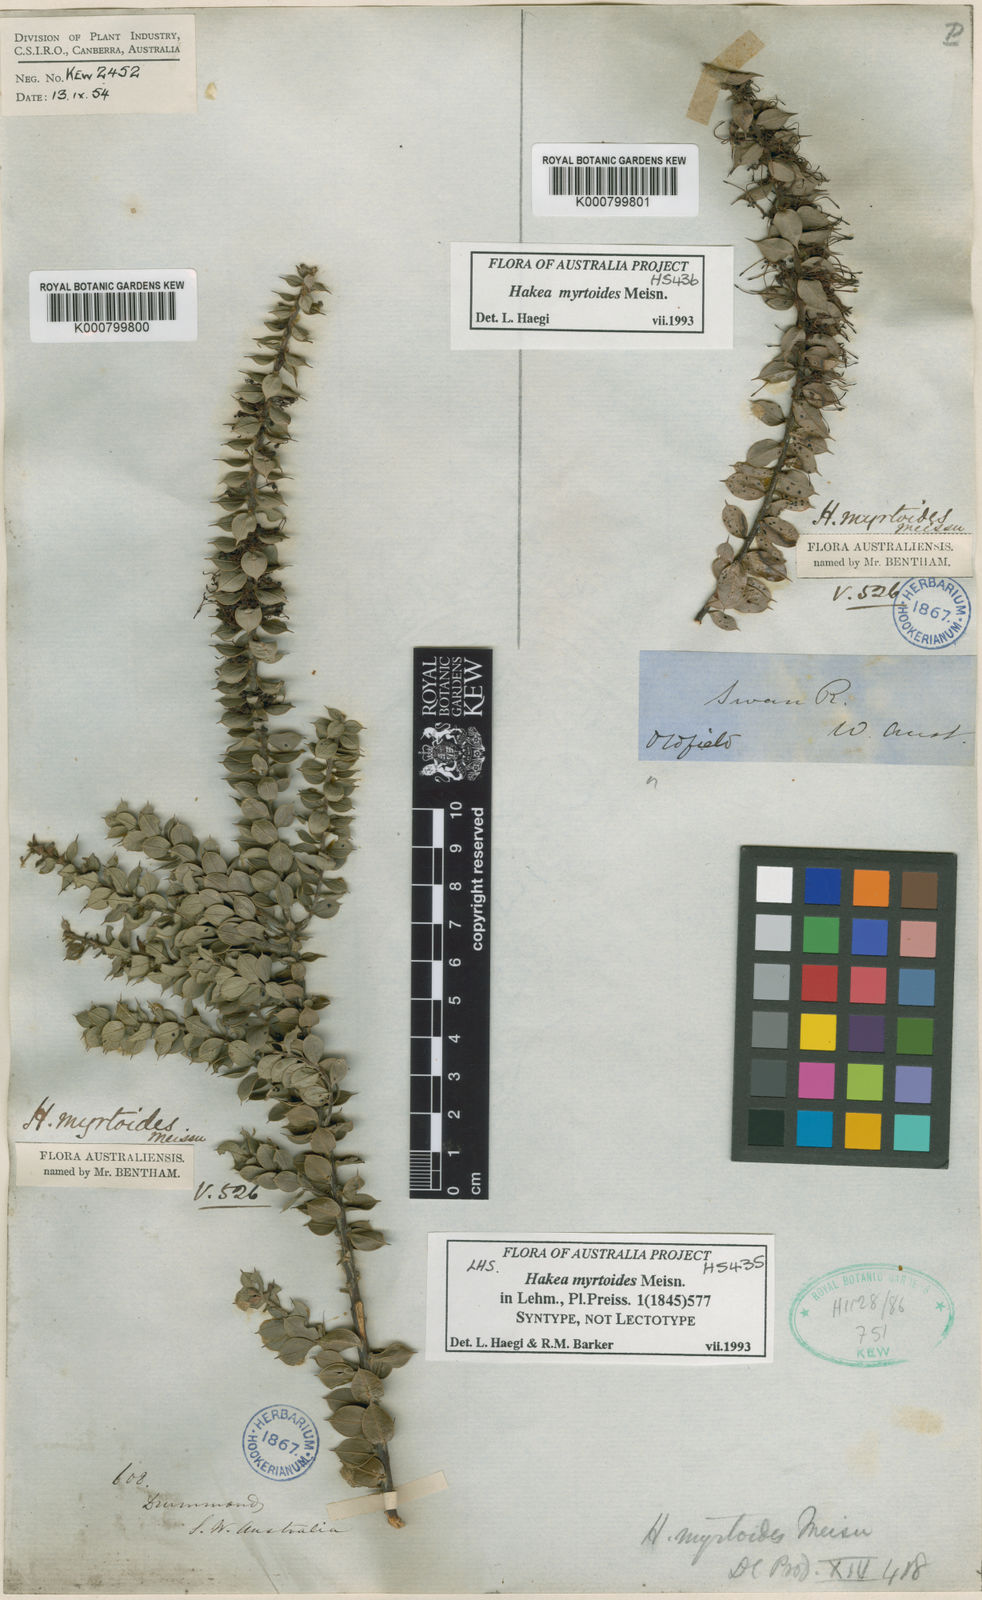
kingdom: Plantae
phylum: Tracheophyta
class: Magnoliopsida
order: Proteales
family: Proteaceae
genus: Hakea
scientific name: Hakea myrtoides
